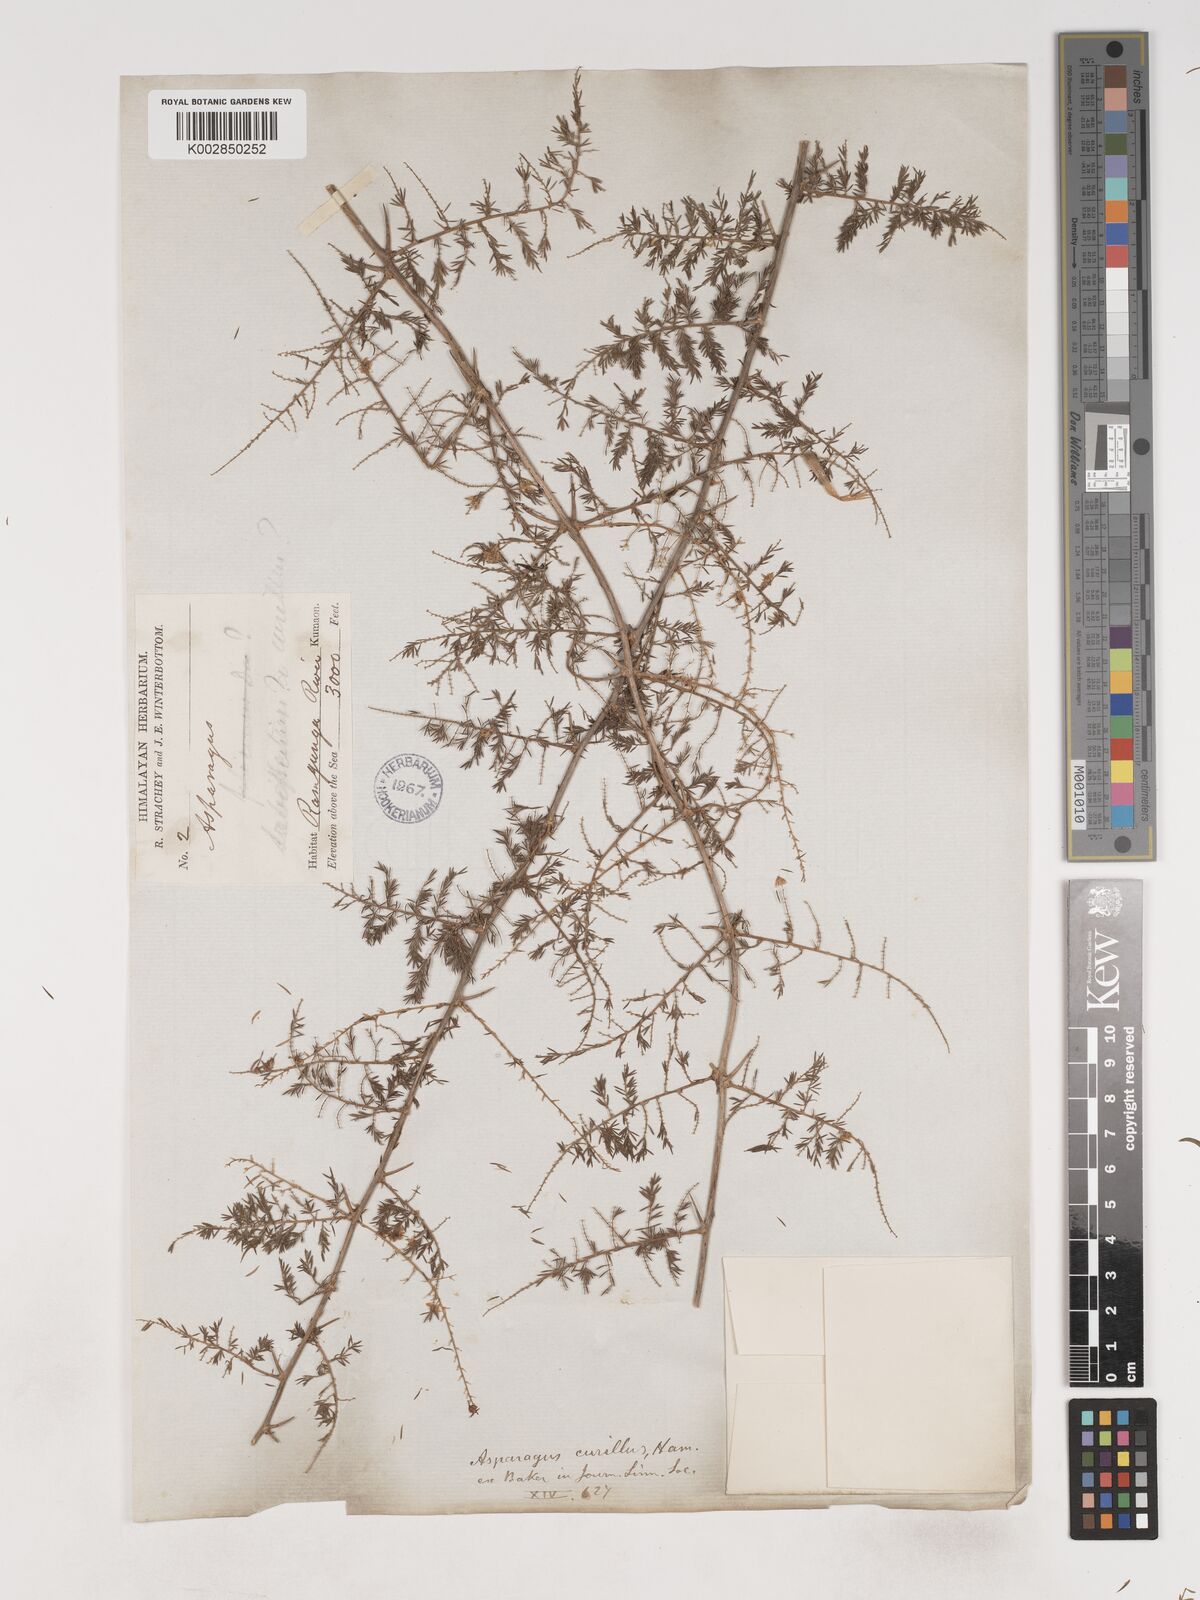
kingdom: Plantae
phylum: Tracheophyta
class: Liliopsida
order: Asparagales
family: Asparagaceae
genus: Asparagus
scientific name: Asparagus curillus
